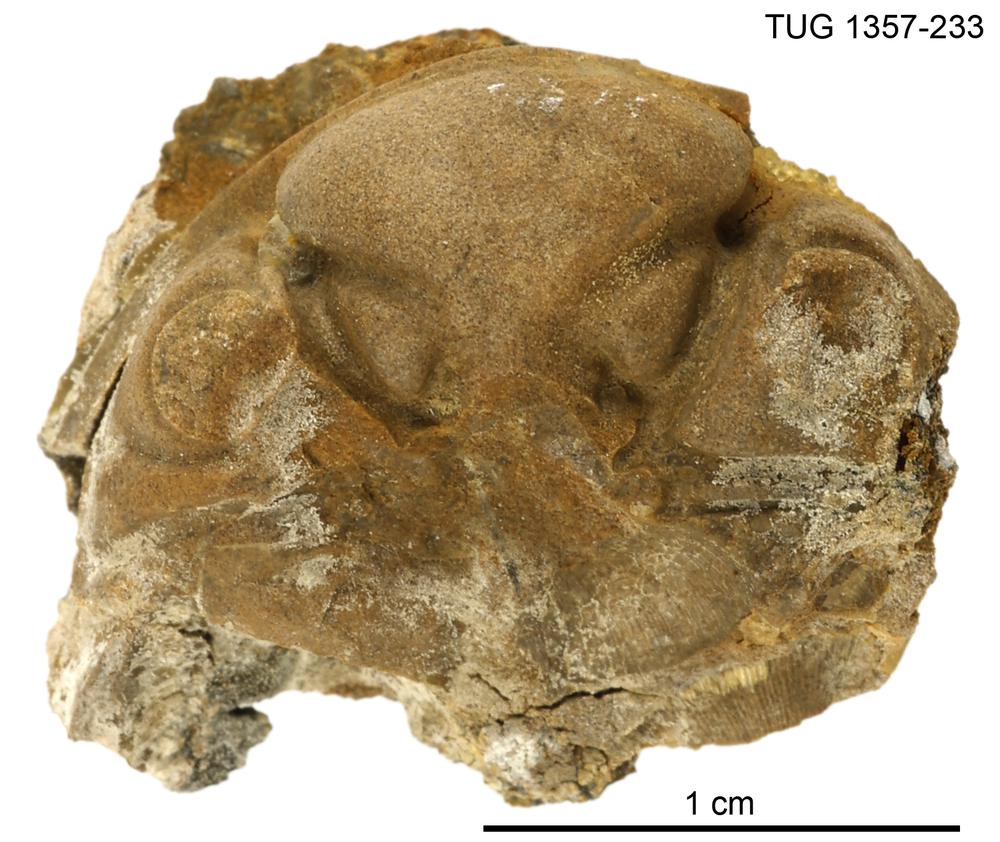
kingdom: Animalia
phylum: Arthropoda
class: Trilobita
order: Phacopida
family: Pterygometopidae
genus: Chasmops
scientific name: Chasmops
